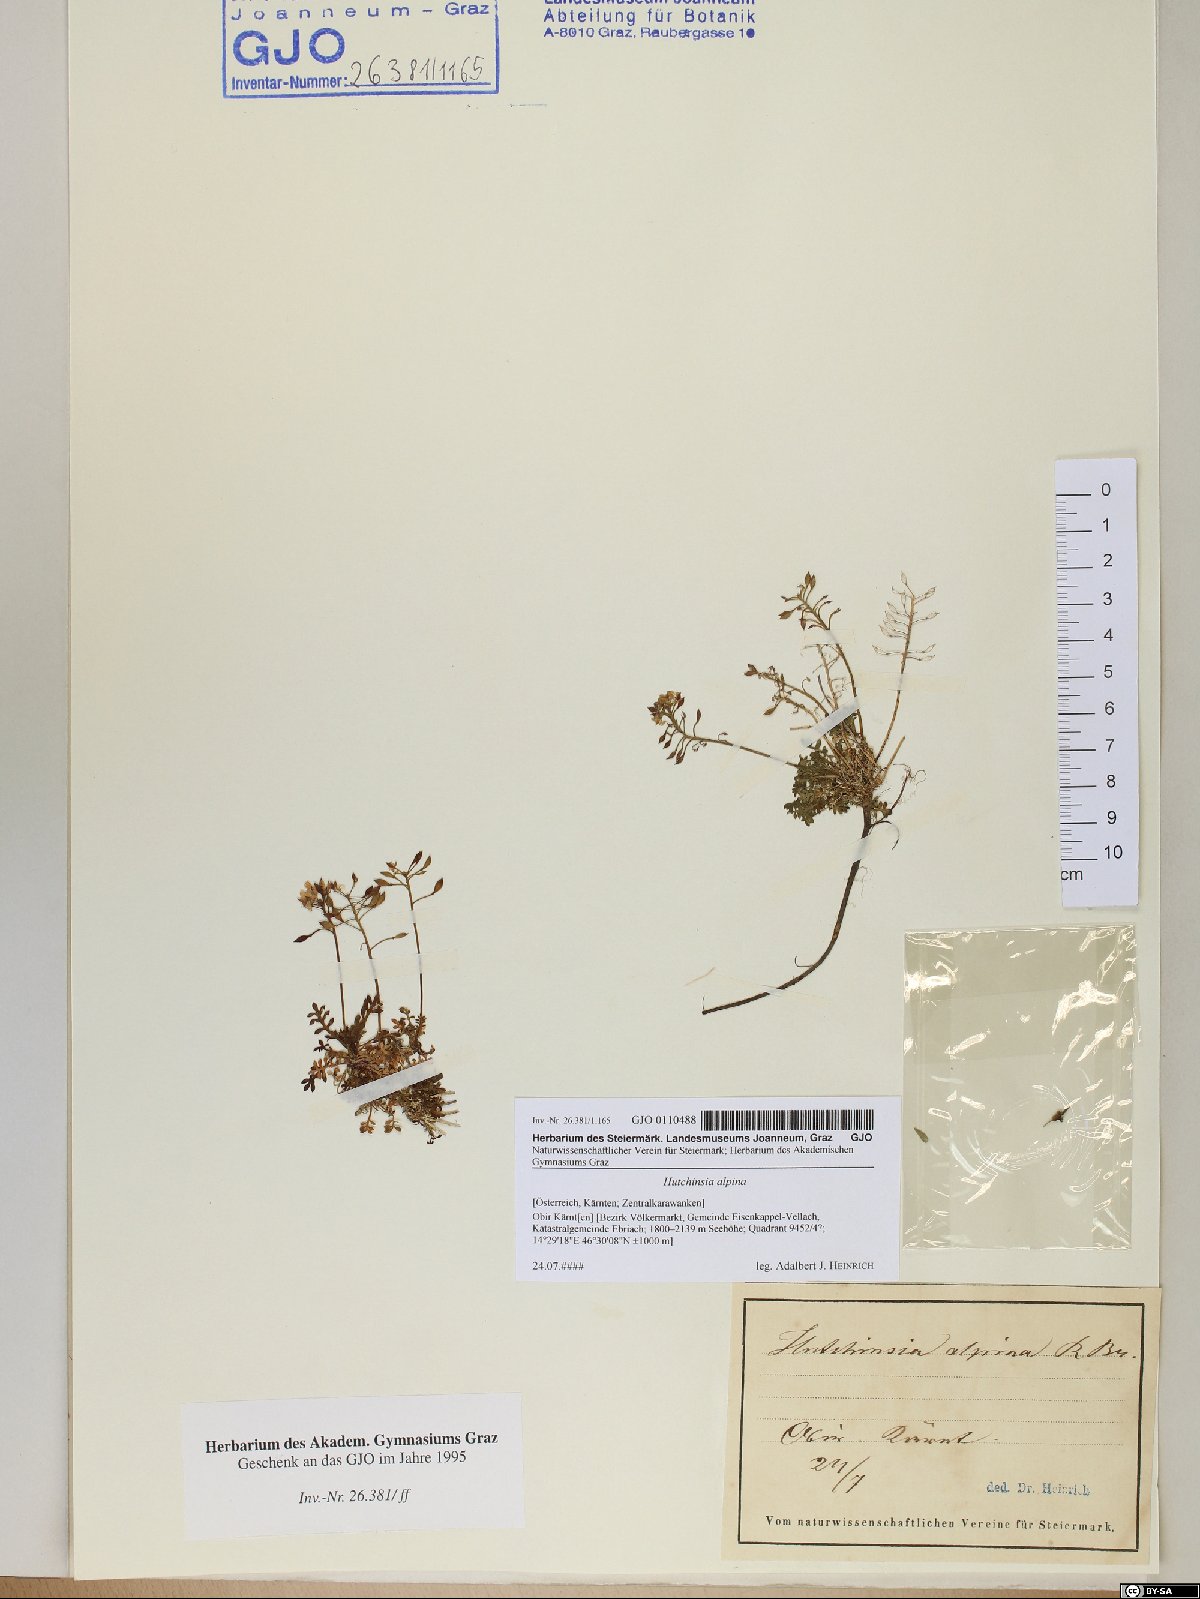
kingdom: Plantae
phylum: Tracheophyta
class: Magnoliopsida
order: Brassicales
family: Brassicaceae
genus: Hornungia
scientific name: Hornungia alpina
